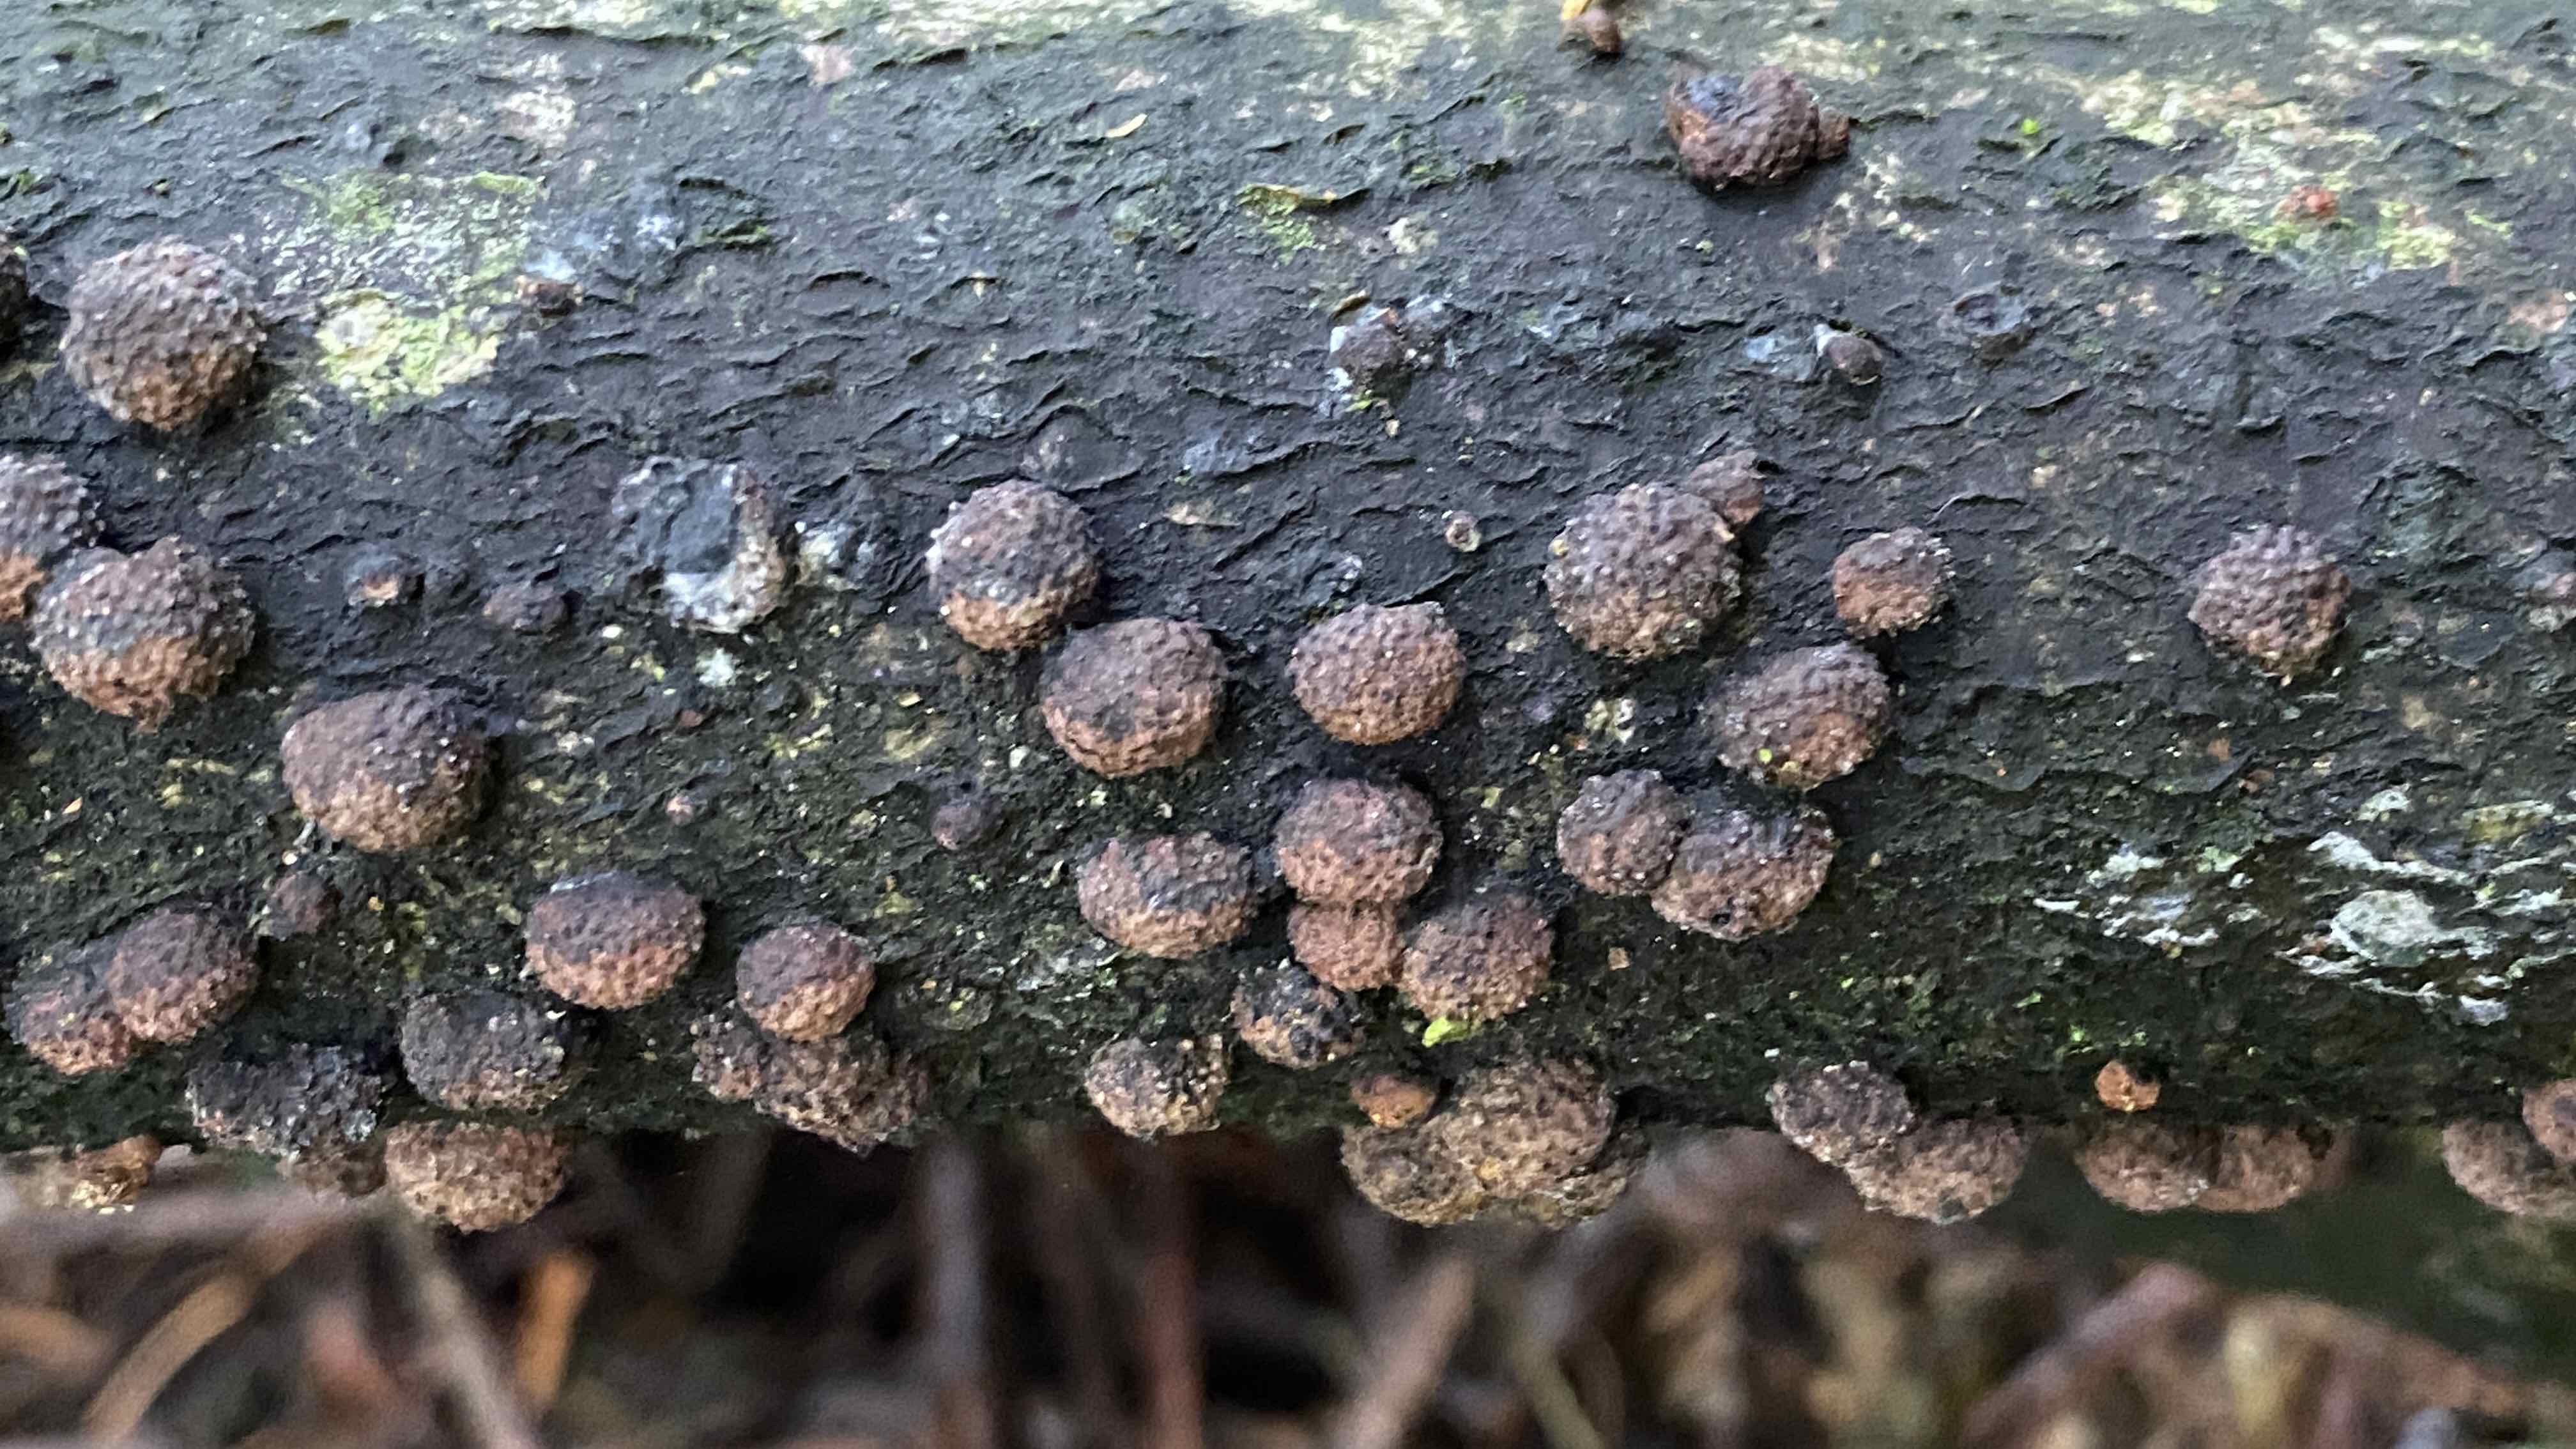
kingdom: Fungi
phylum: Ascomycota
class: Sordariomycetes
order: Xylariales
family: Hypoxylaceae
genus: Hypoxylon
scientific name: Hypoxylon
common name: kulbær
